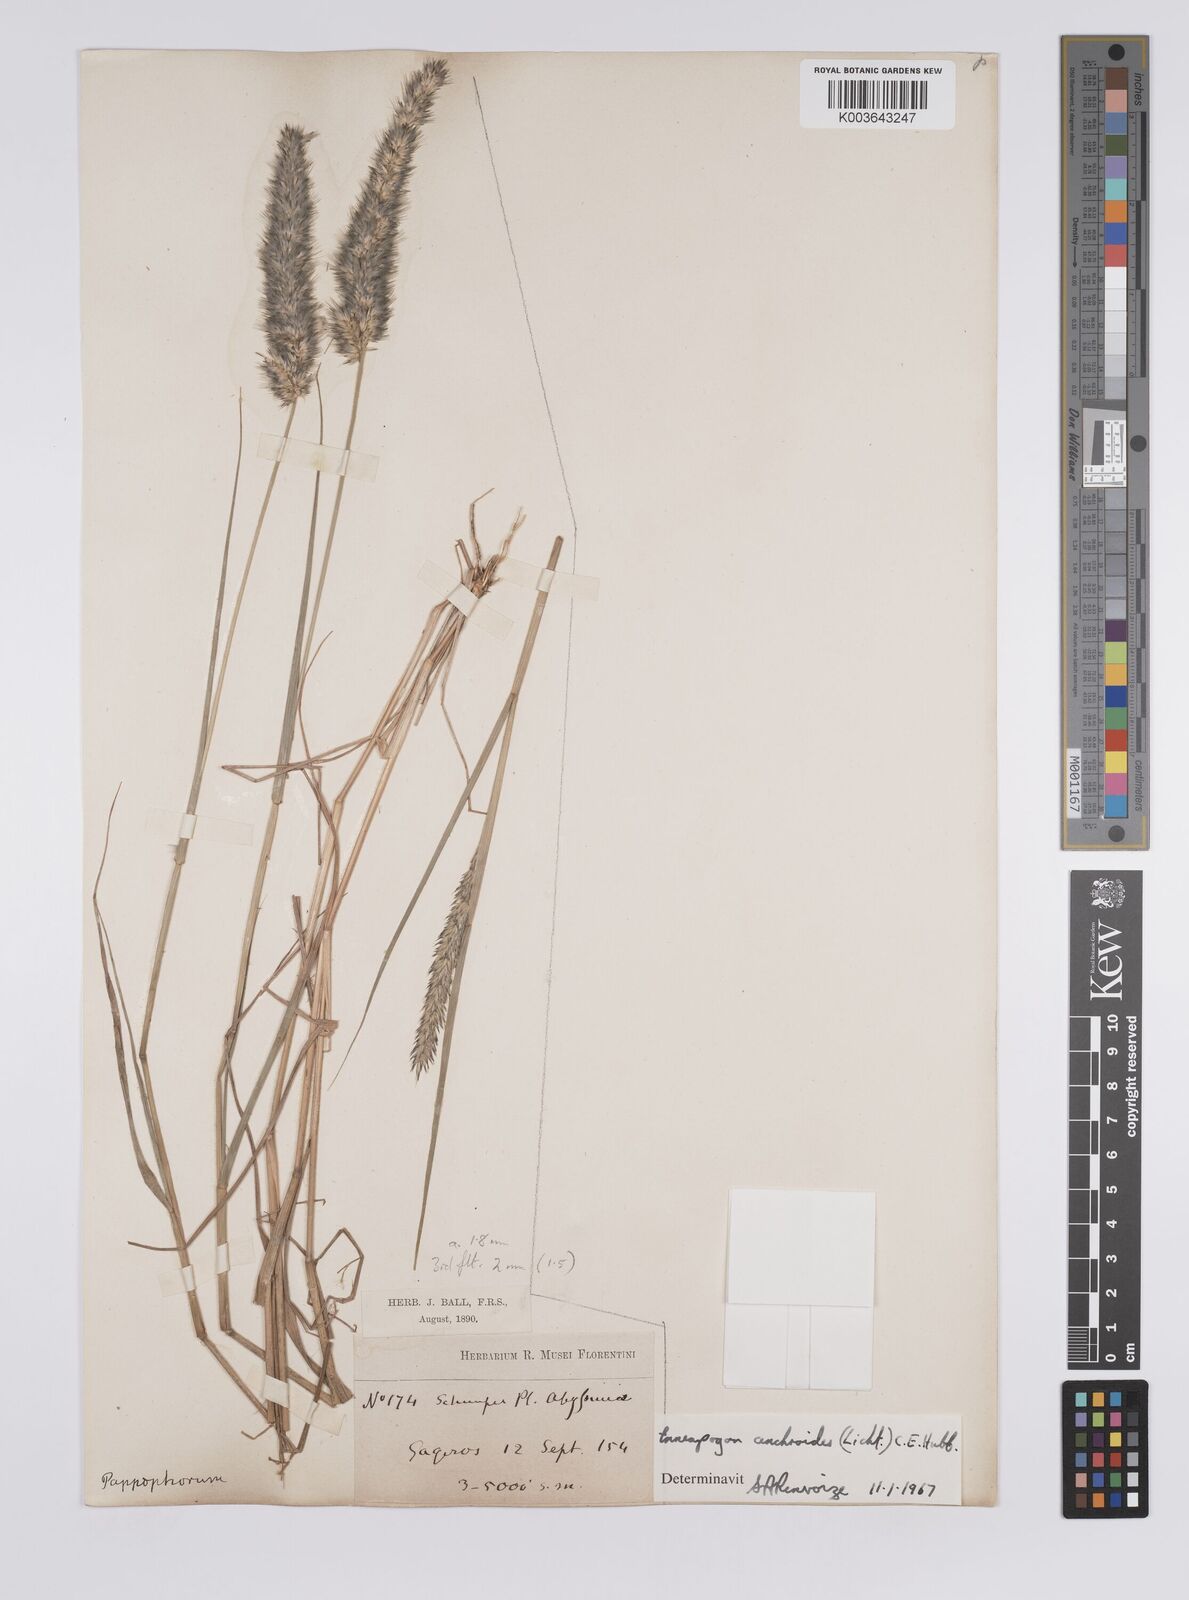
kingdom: Plantae
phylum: Tracheophyta
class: Liliopsida
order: Poales
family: Poaceae
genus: Enneapogon
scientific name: Enneapogon cenchroides
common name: Soft feather pappusgrass
